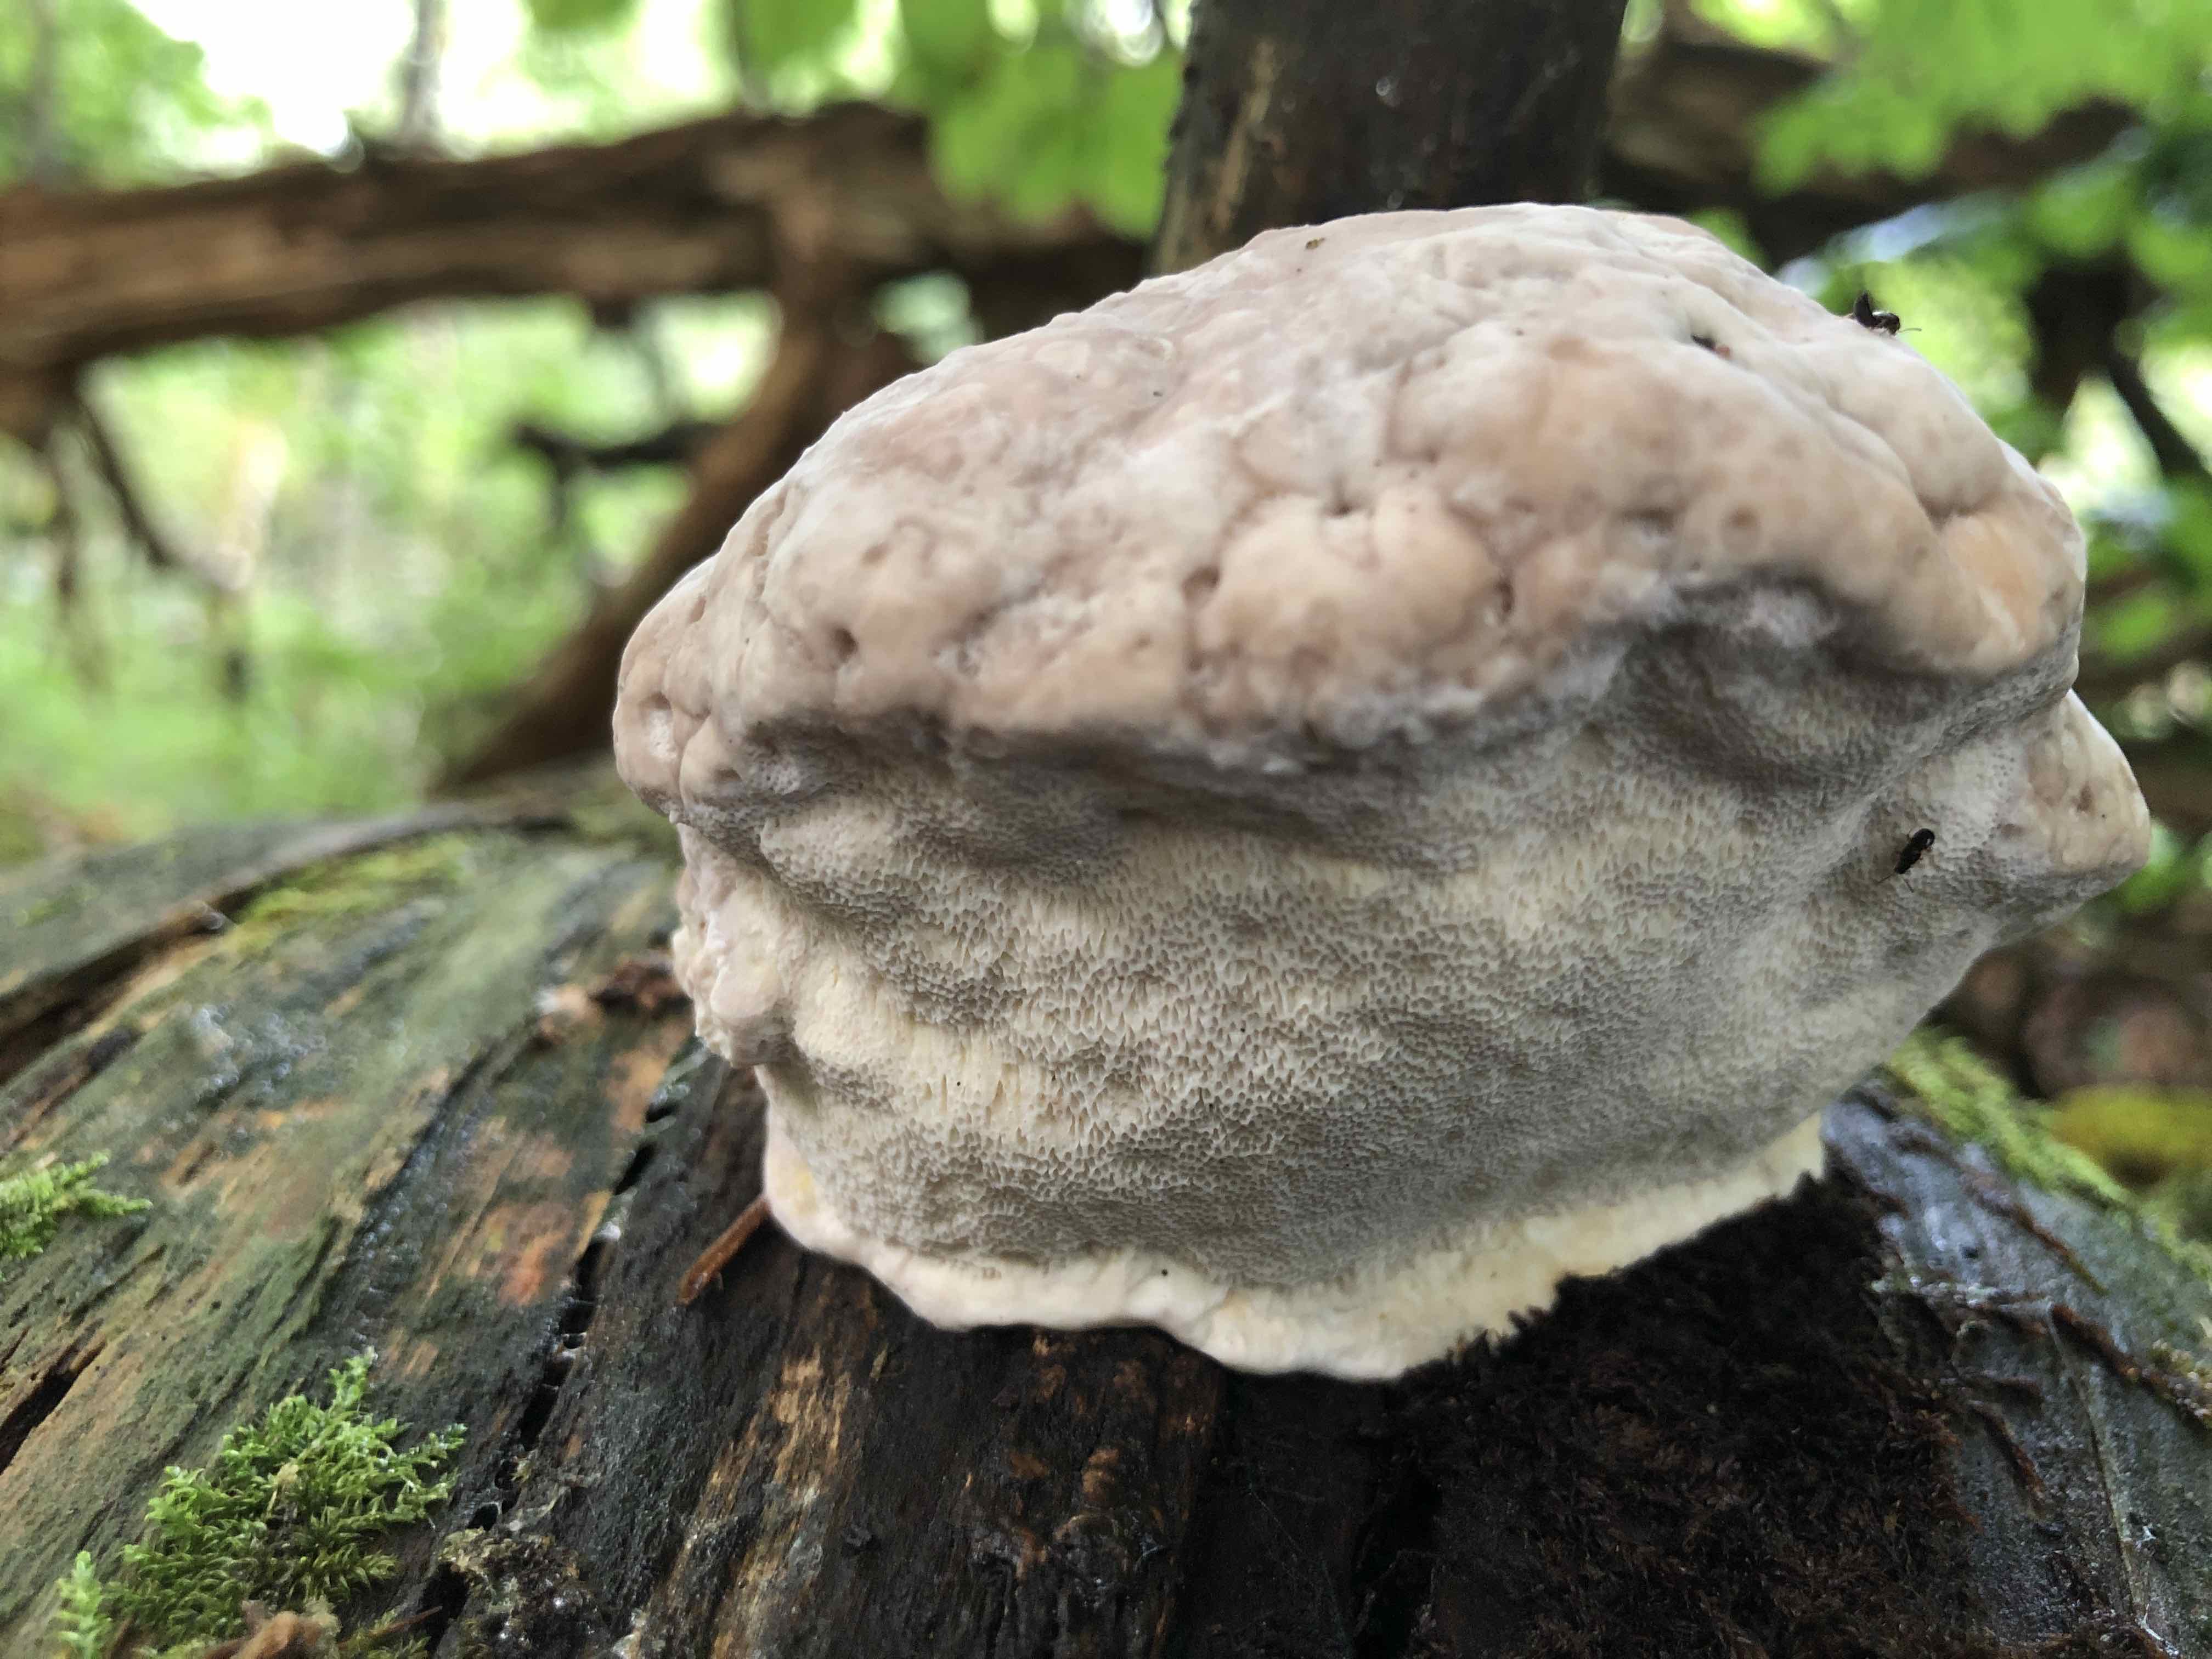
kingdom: Fungi
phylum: Basidiomycota
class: Agaricomycetes
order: Polyporales
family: Fomitopsidaceae
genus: Fomitopsis
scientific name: Fomitopsis pinicola
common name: randbæltet hovporesvamp
